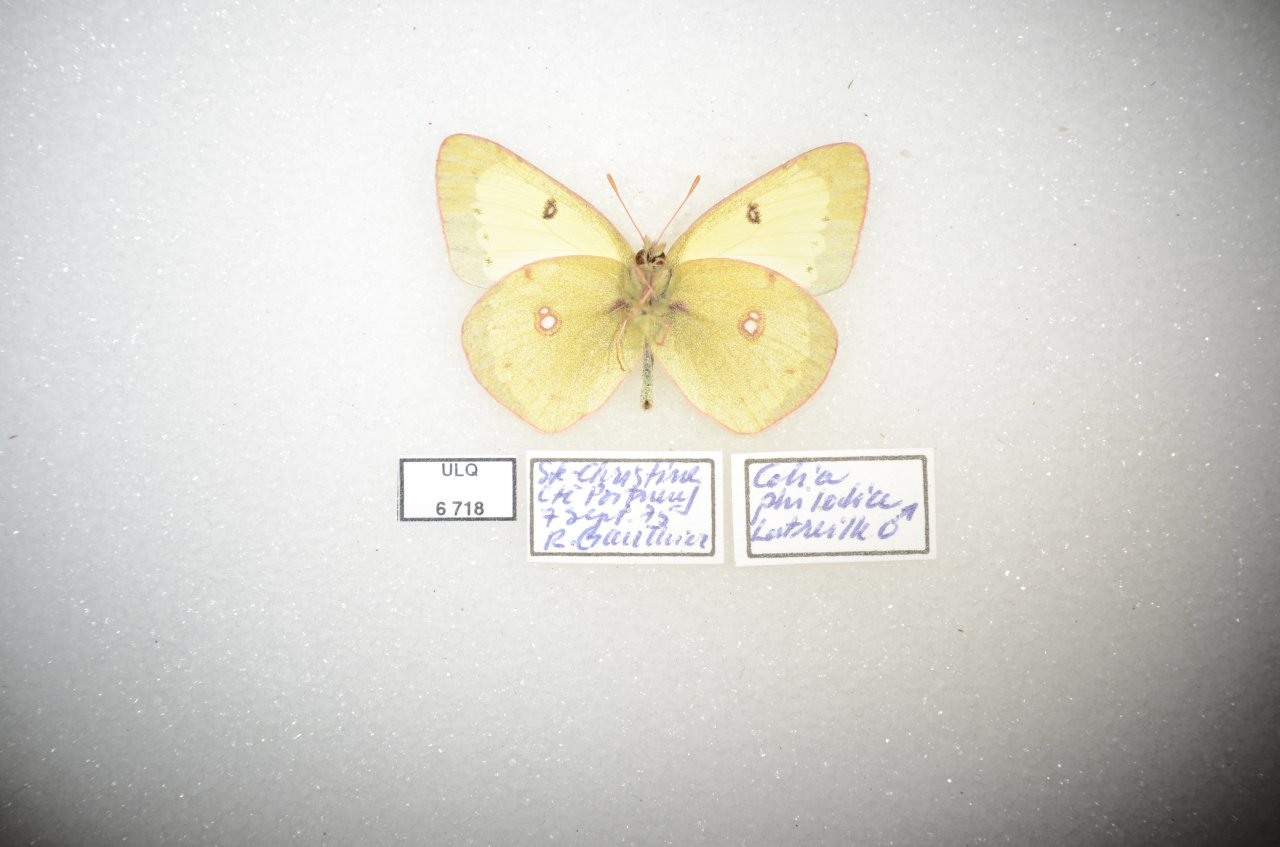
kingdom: Animalia
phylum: Arthropoda
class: Insecta
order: Lepidoptera
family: Pieridae
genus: Colias
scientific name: Colias philodice
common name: Clouded Sulphur
